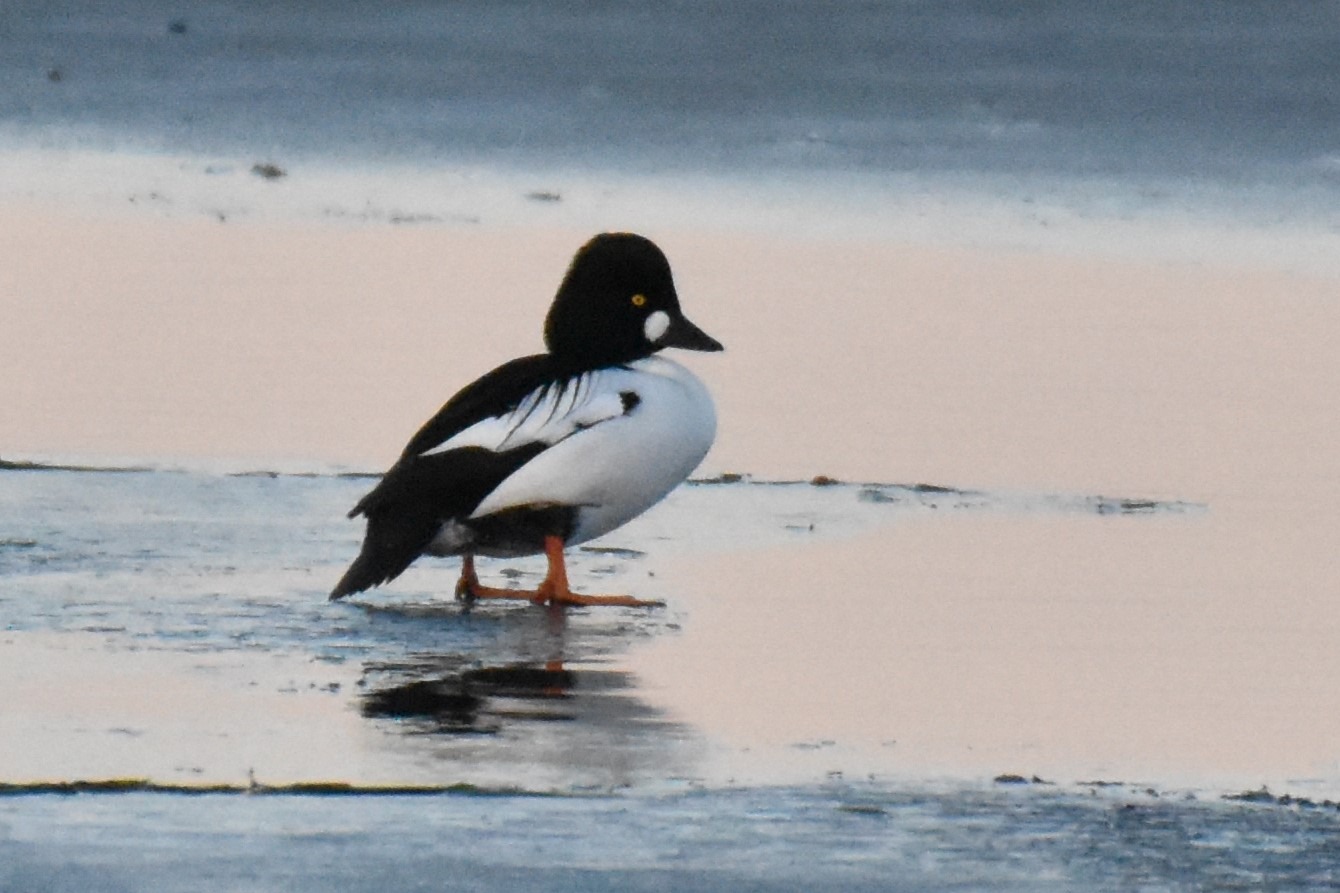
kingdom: Animalia
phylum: Chordata
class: Aves
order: Anseriformes
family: Anatidae
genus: Bucephala
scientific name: Bucephala clangula
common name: Hvinand
